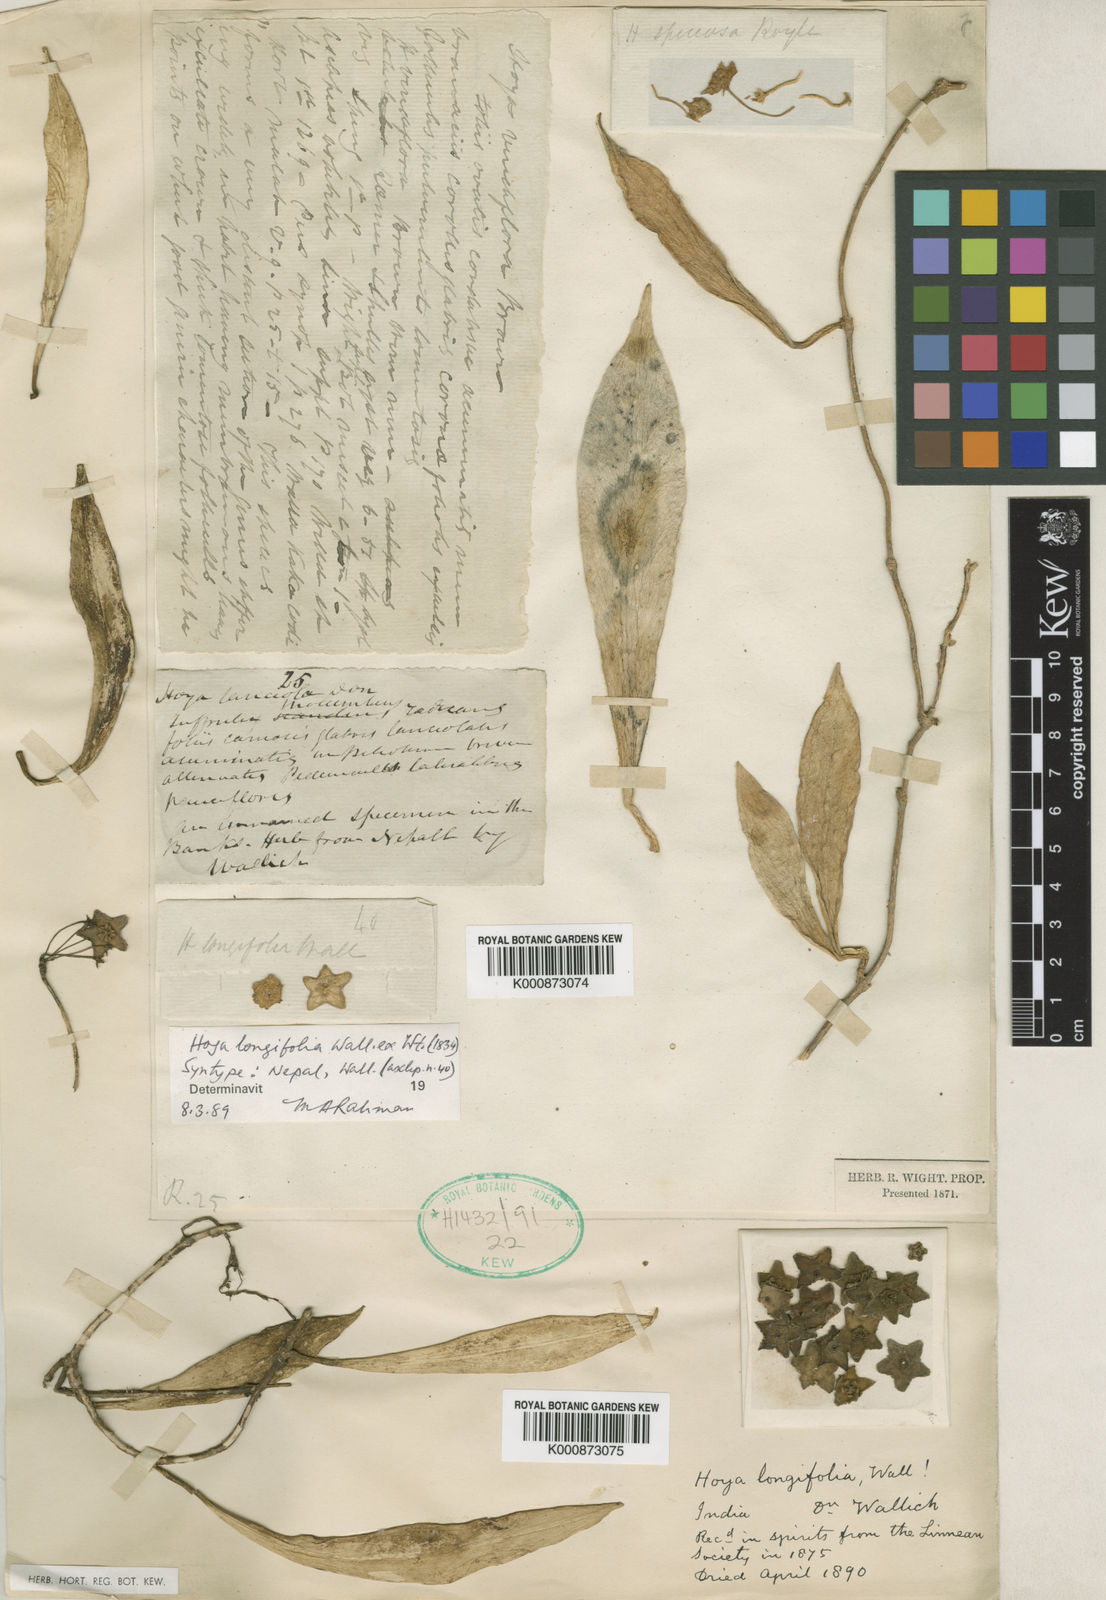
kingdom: Plantae
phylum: Tracheophyta
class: Magnoliopsida
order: Gentianales
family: Apocynaceae
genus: Hoya
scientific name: Hoya longifolia
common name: String-bean-plant
